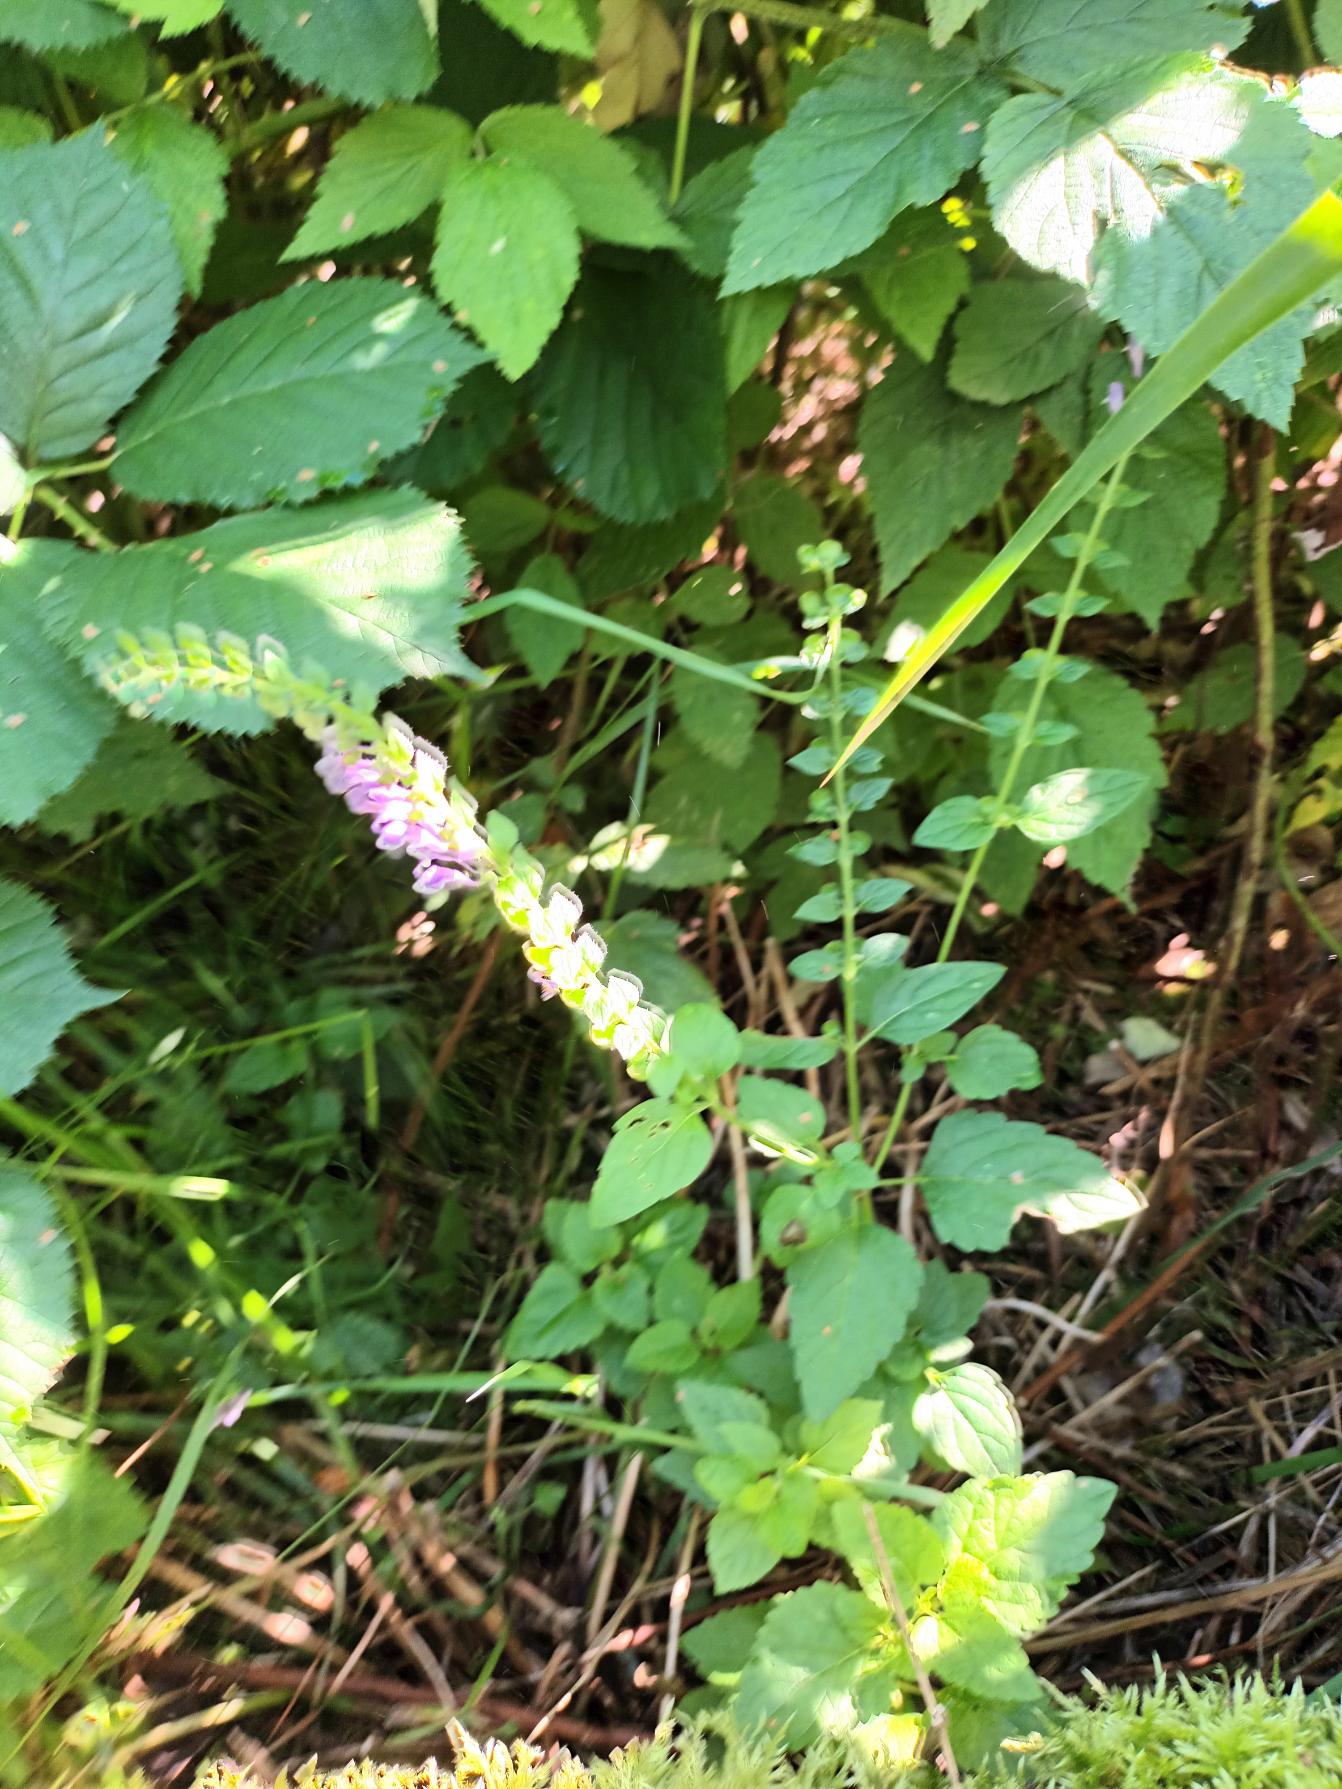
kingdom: Plantae
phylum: Tracheophyta
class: Magnoliopsida
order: Lamiales
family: Lamiaceae
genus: Scutellaria
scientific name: Scutellaria altissima
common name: Høj skjolddrager
